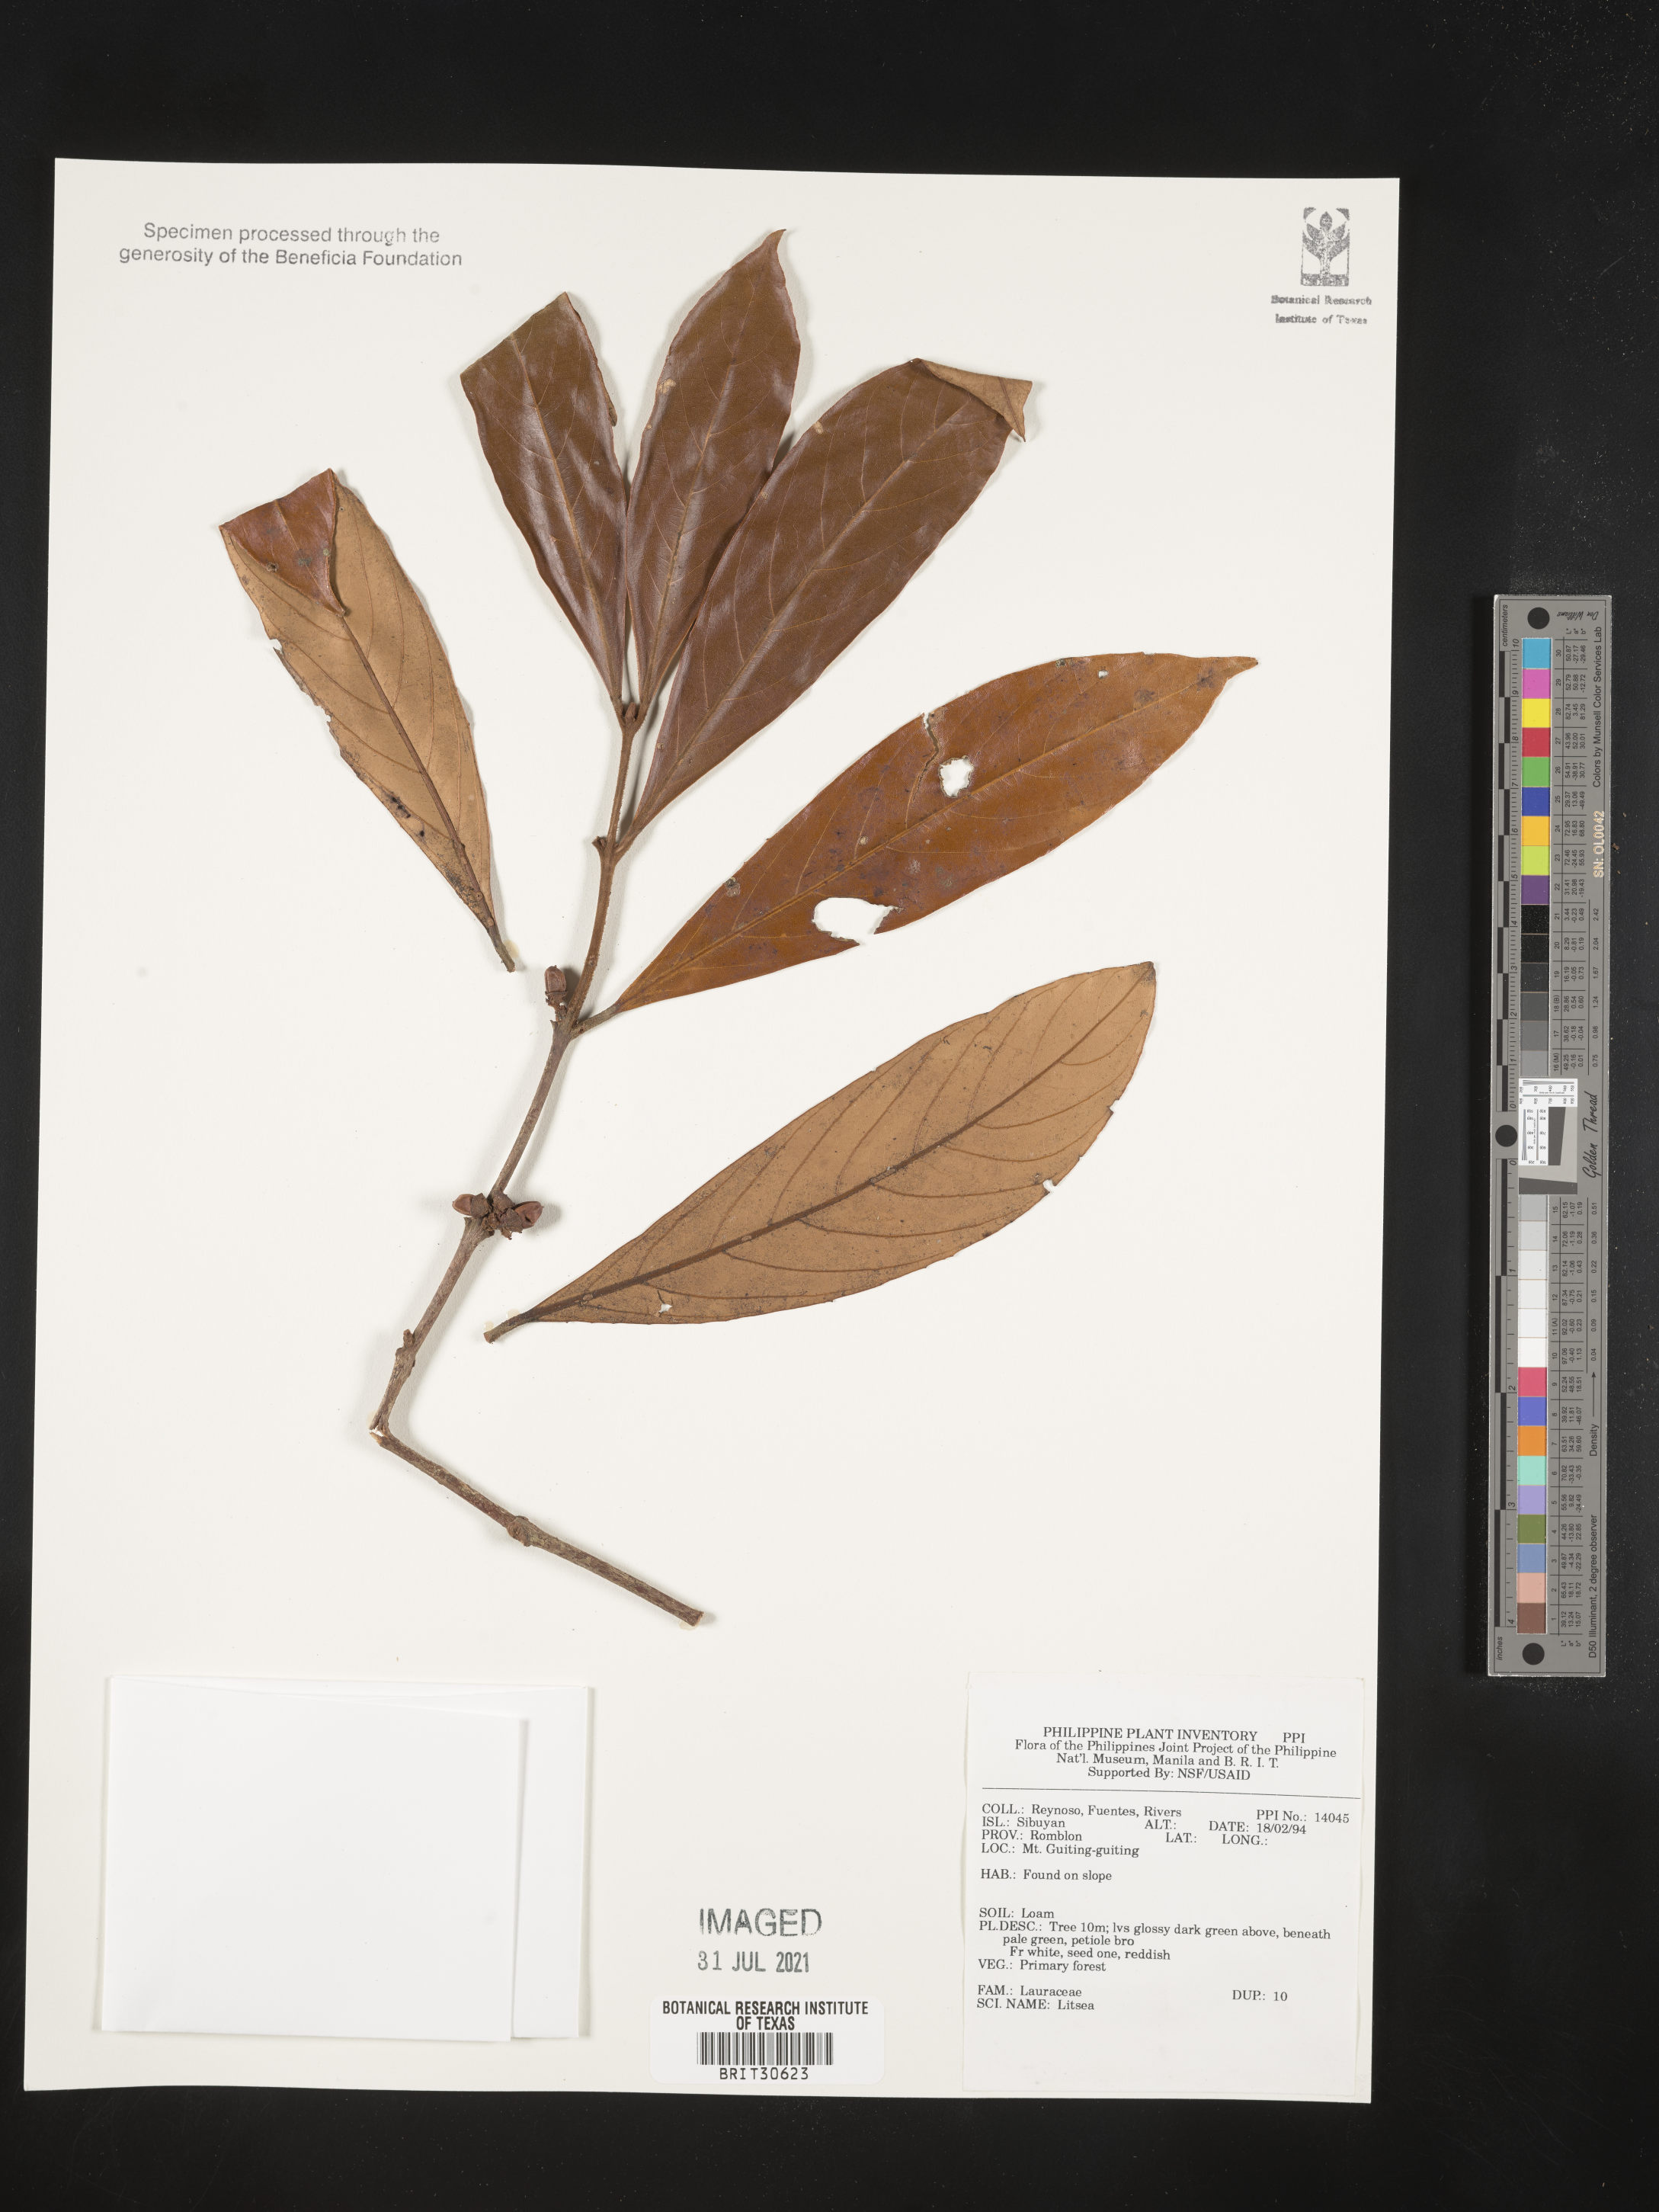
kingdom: Plantae
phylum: Tracheophyta
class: Magnoliopsida
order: Laurales
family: Lauraceae
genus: Litsea
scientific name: Litsea
